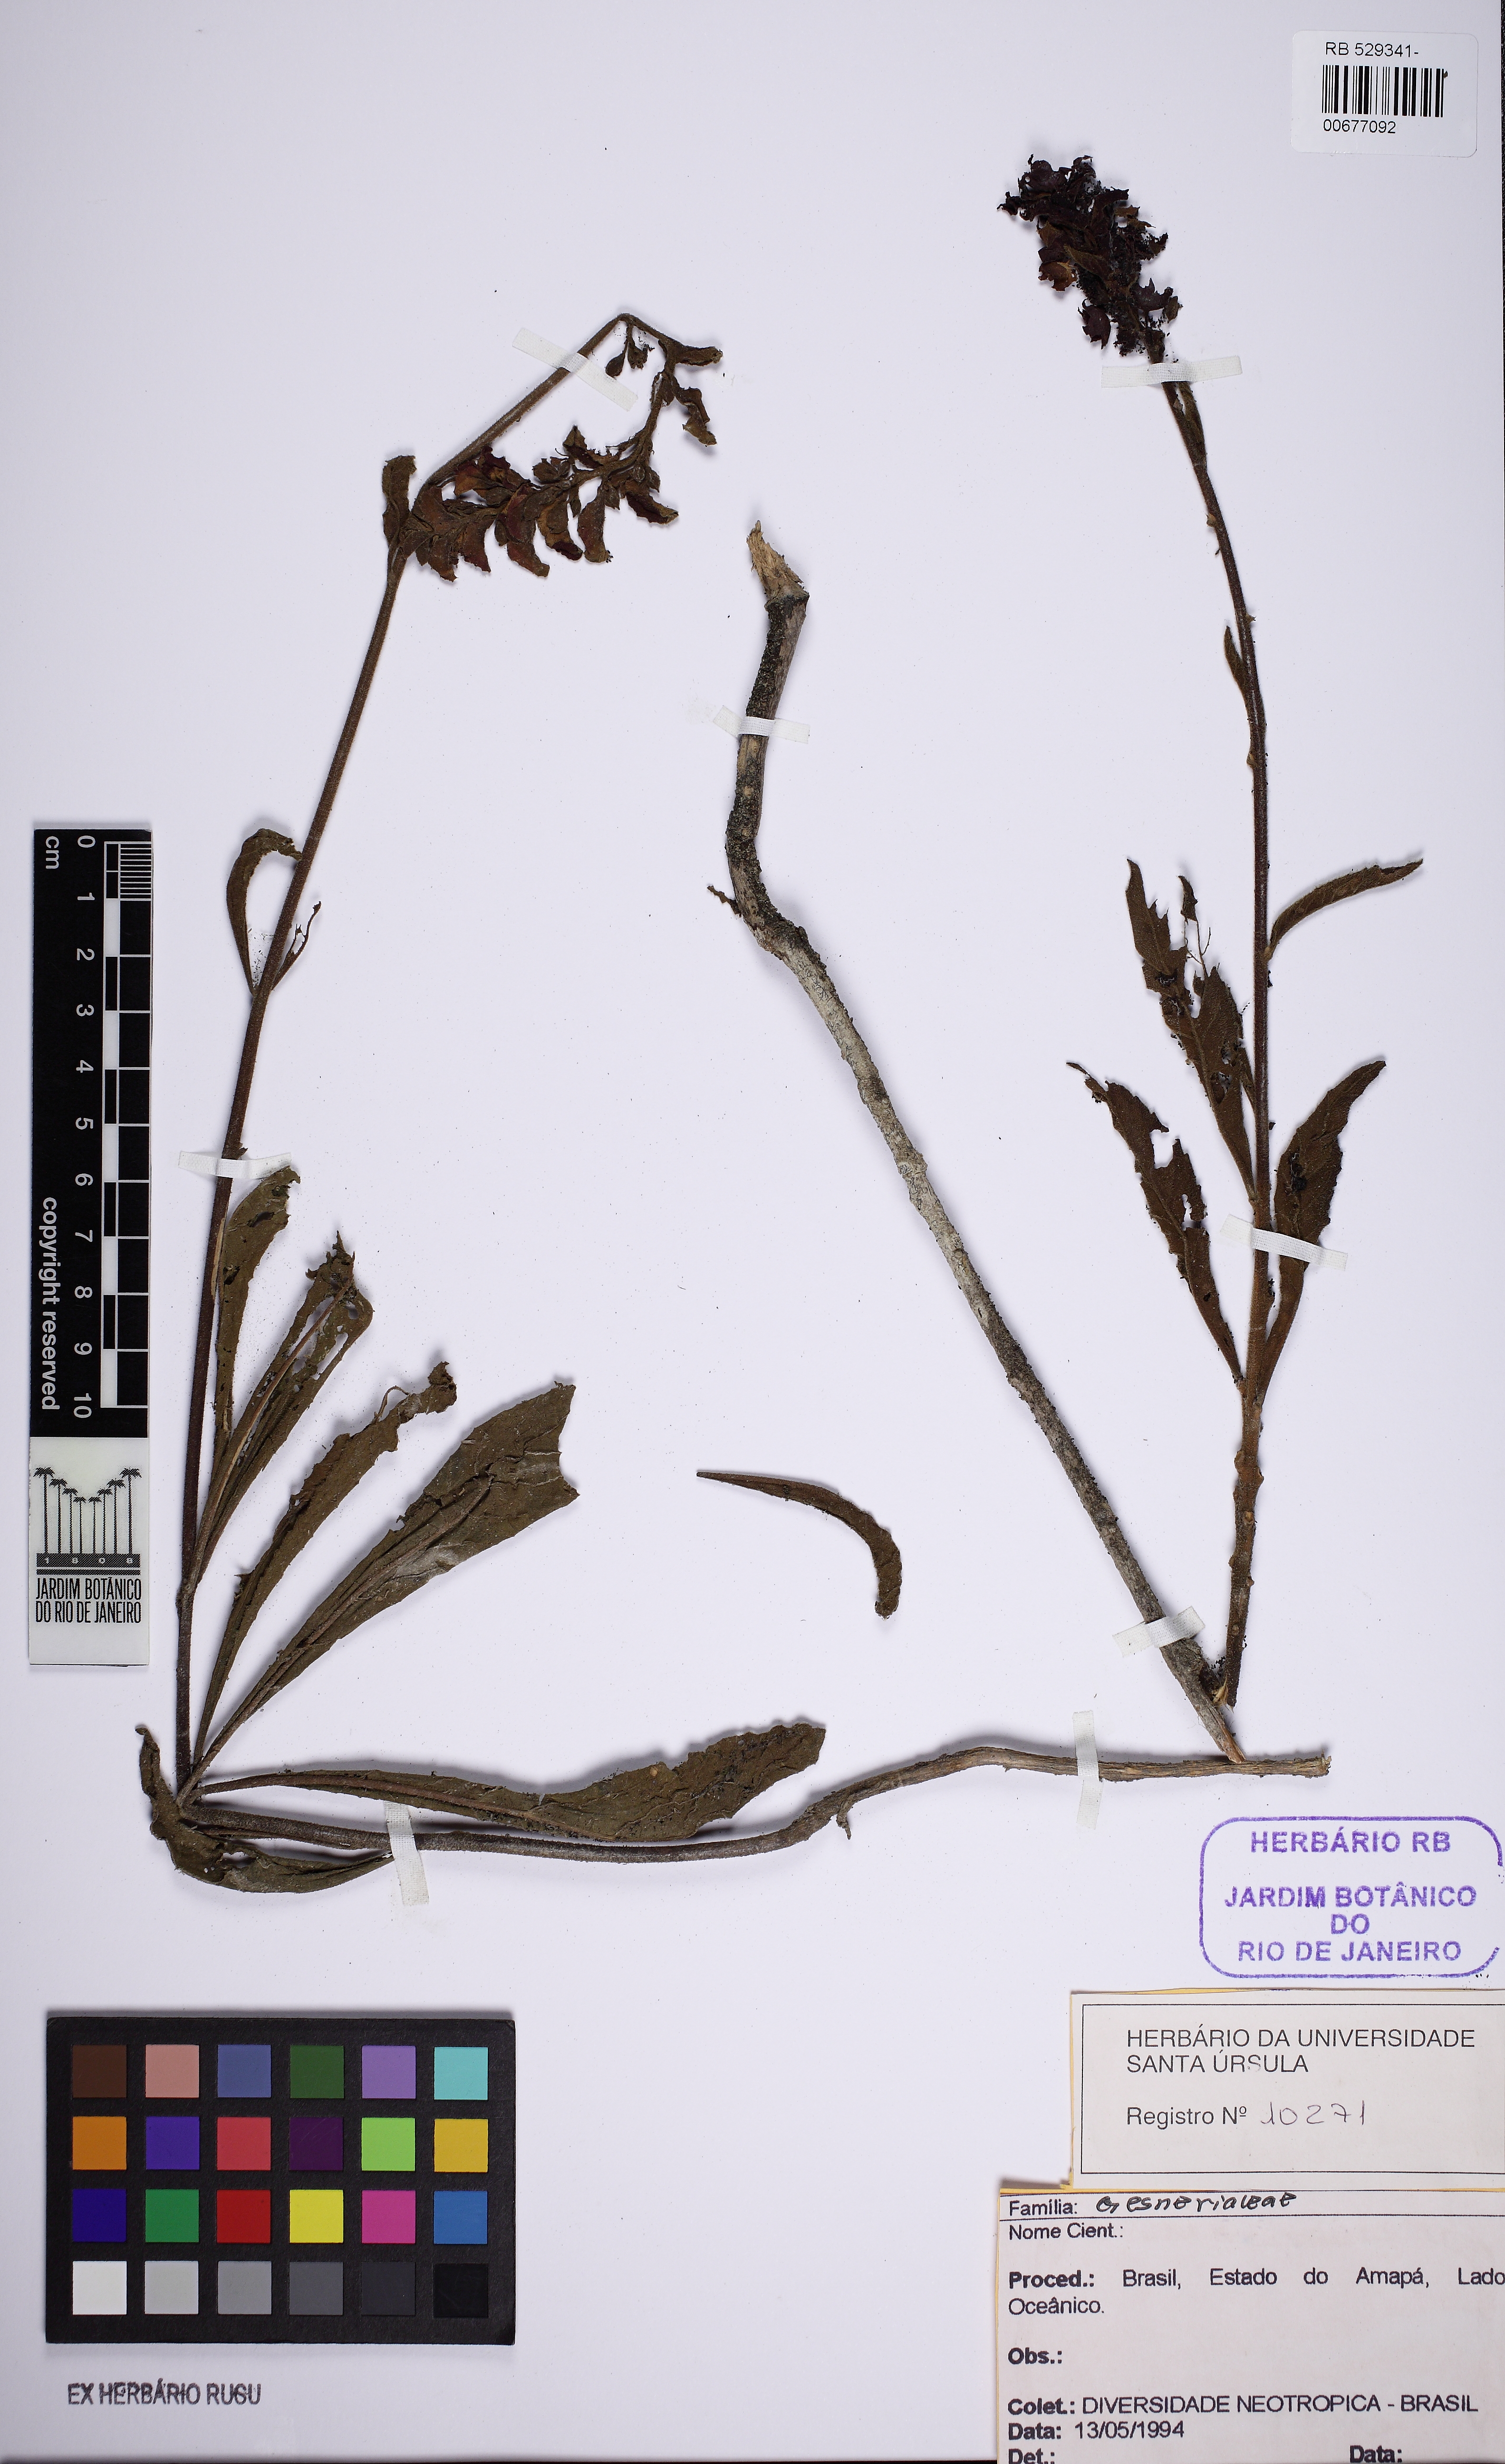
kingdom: Plantae
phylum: Tracheophyta
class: Magnoliopsida
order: Lamiales
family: Gesneriaceae
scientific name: Gesneriaceae
